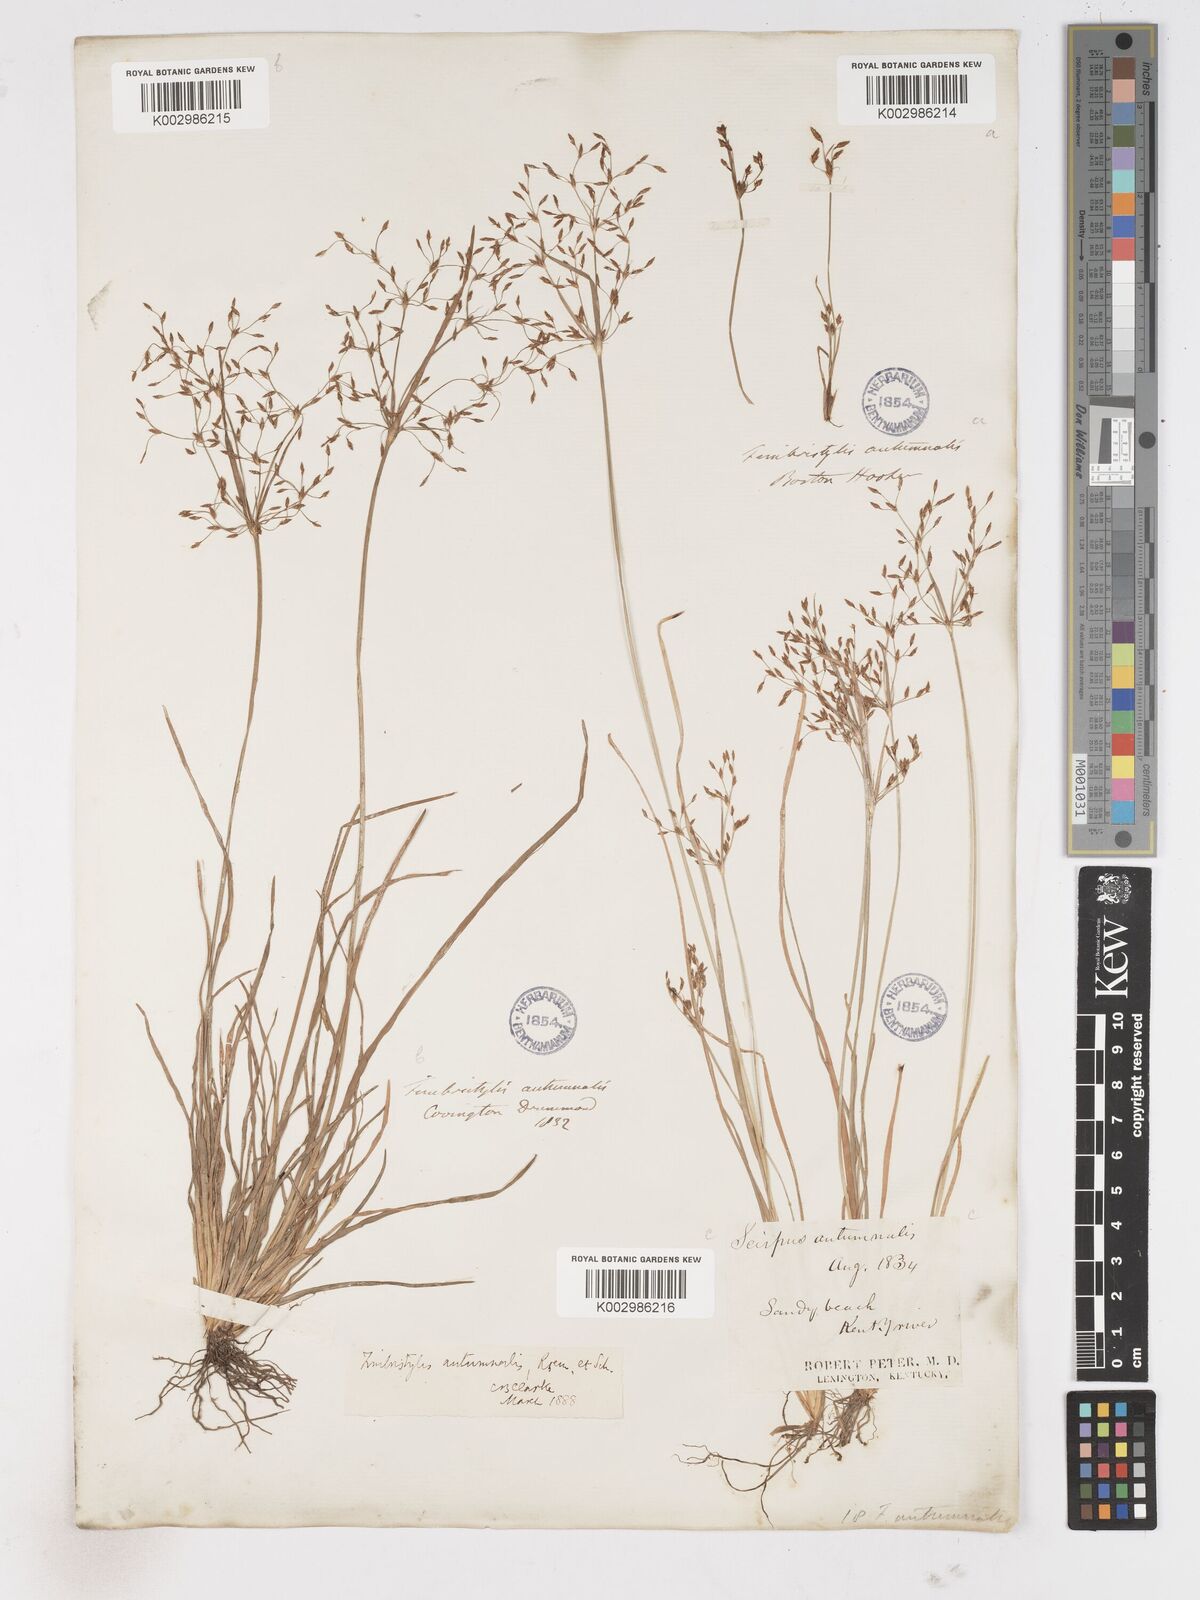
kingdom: Plantae
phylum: Tracheophyta
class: Liliopsida
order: Poales
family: Cyperaceae
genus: Fimbristylis
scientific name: Fimbristylis autumnalis
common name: Slender fimbristylis
